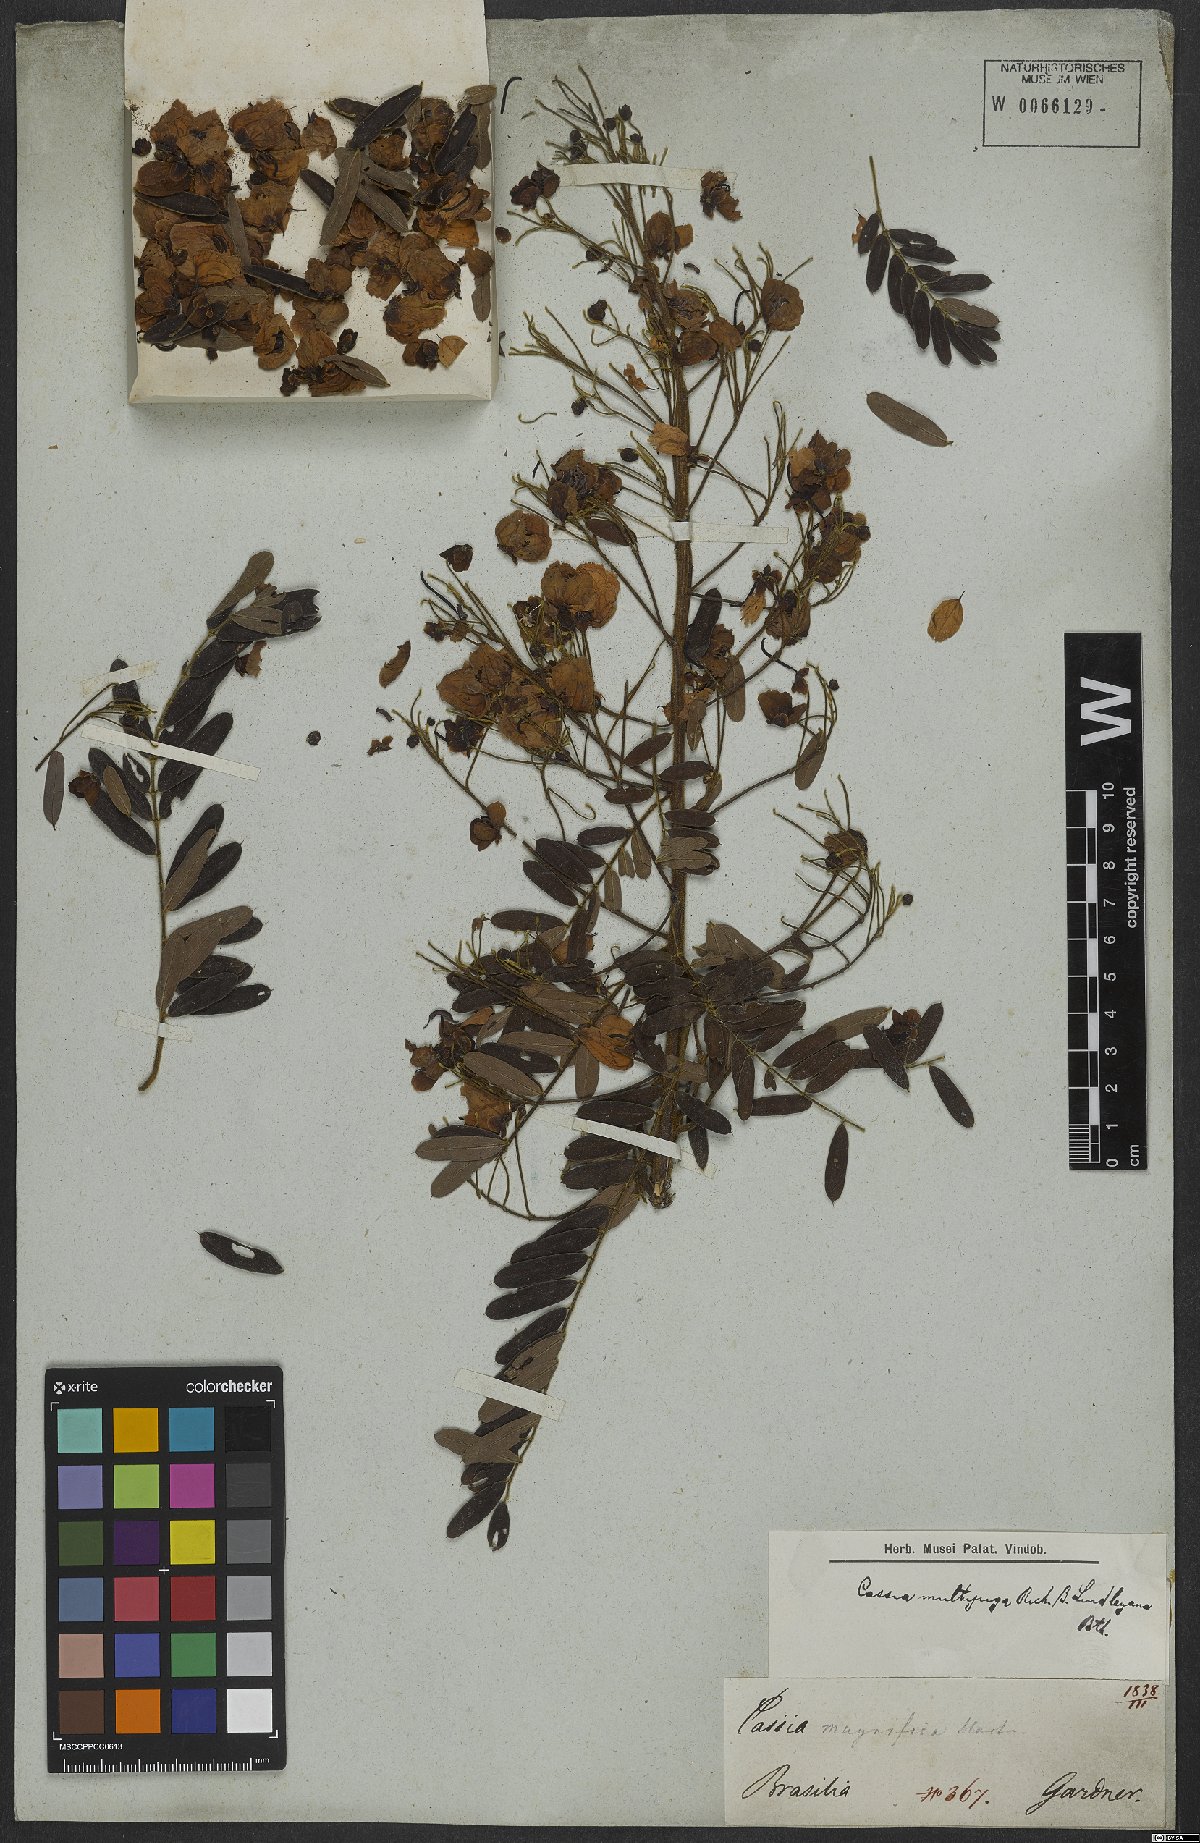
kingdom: Plantae
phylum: Tracheophyta
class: Magnoliopsida
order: Fabales
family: Fabaceae
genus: Senna
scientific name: Senna multijuga
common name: False sicklepod
